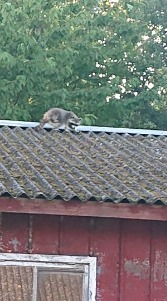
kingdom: Animalia
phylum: Chordata
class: Mammalia
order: Carnivora
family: Procyonidae
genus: Procyon
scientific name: Procyon lotor
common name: Vaskebjørn
